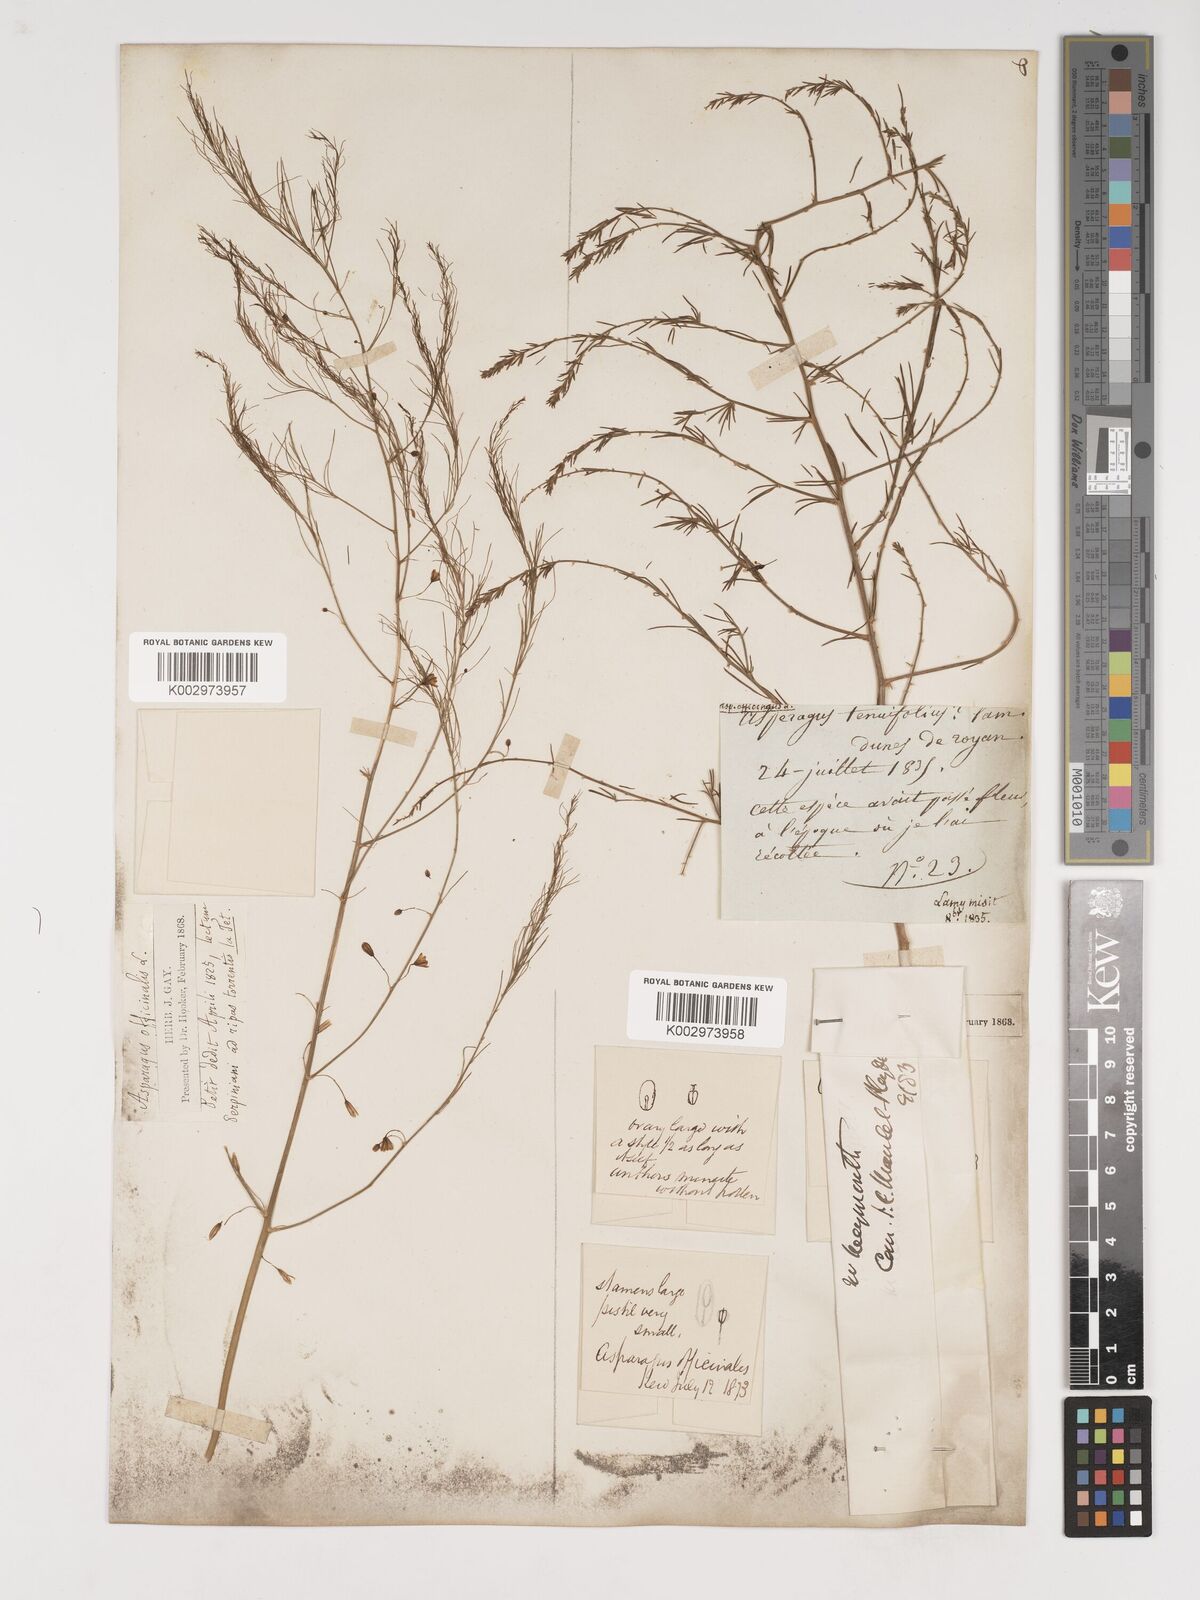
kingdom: Plantae
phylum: Tracheophyta
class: Liliopsida
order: Asparagales
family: Asparagaceae
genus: Asparagus
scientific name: Asparagus officinalis
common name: Garden asparagus
